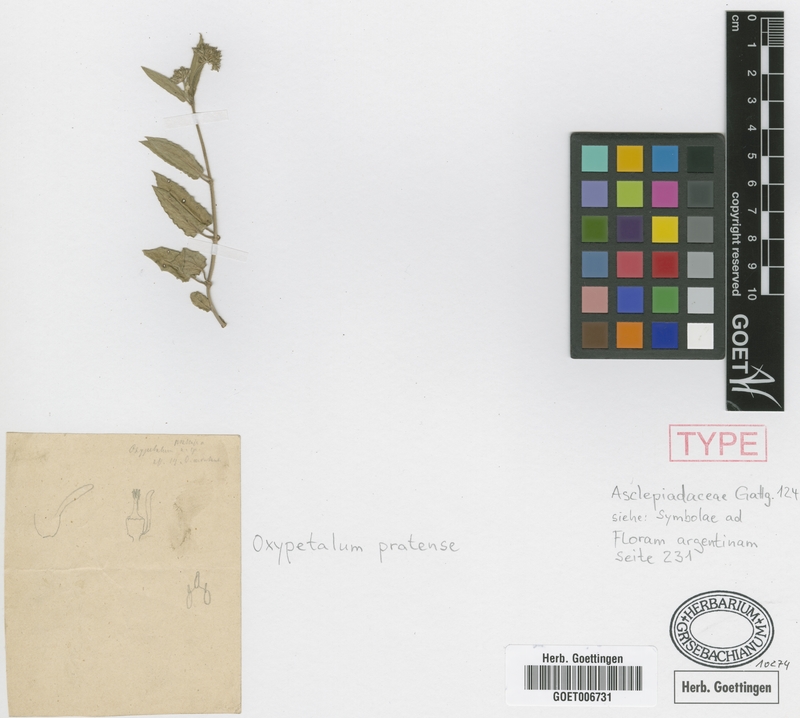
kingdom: Plantae
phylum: Tracheophyta
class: Magnoliopsida
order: Gentianales
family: Apocynaceae
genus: Oxypetalum
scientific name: Oxypetalum crispum
